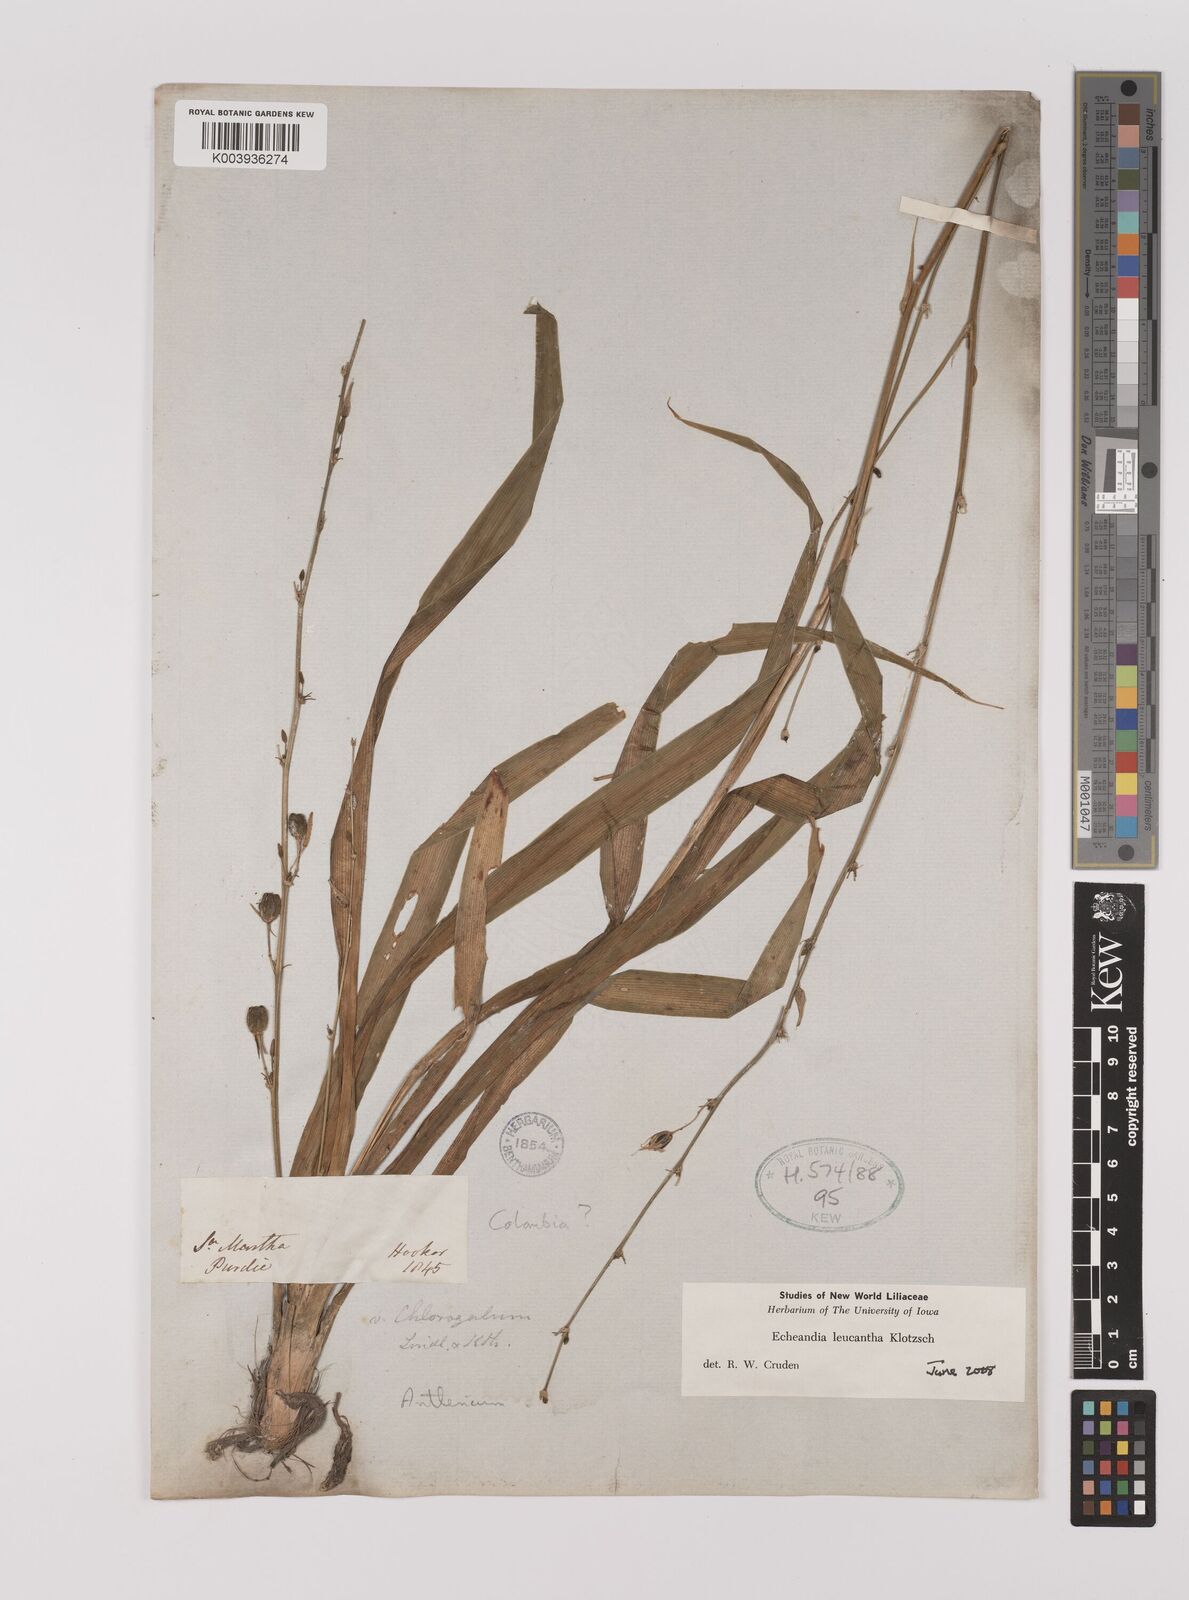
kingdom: Plantae
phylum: Tracheophyta
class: Liliopsida
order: Asparagales
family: Asparagaceae
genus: Echeandia
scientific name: Echeandia leucantha
